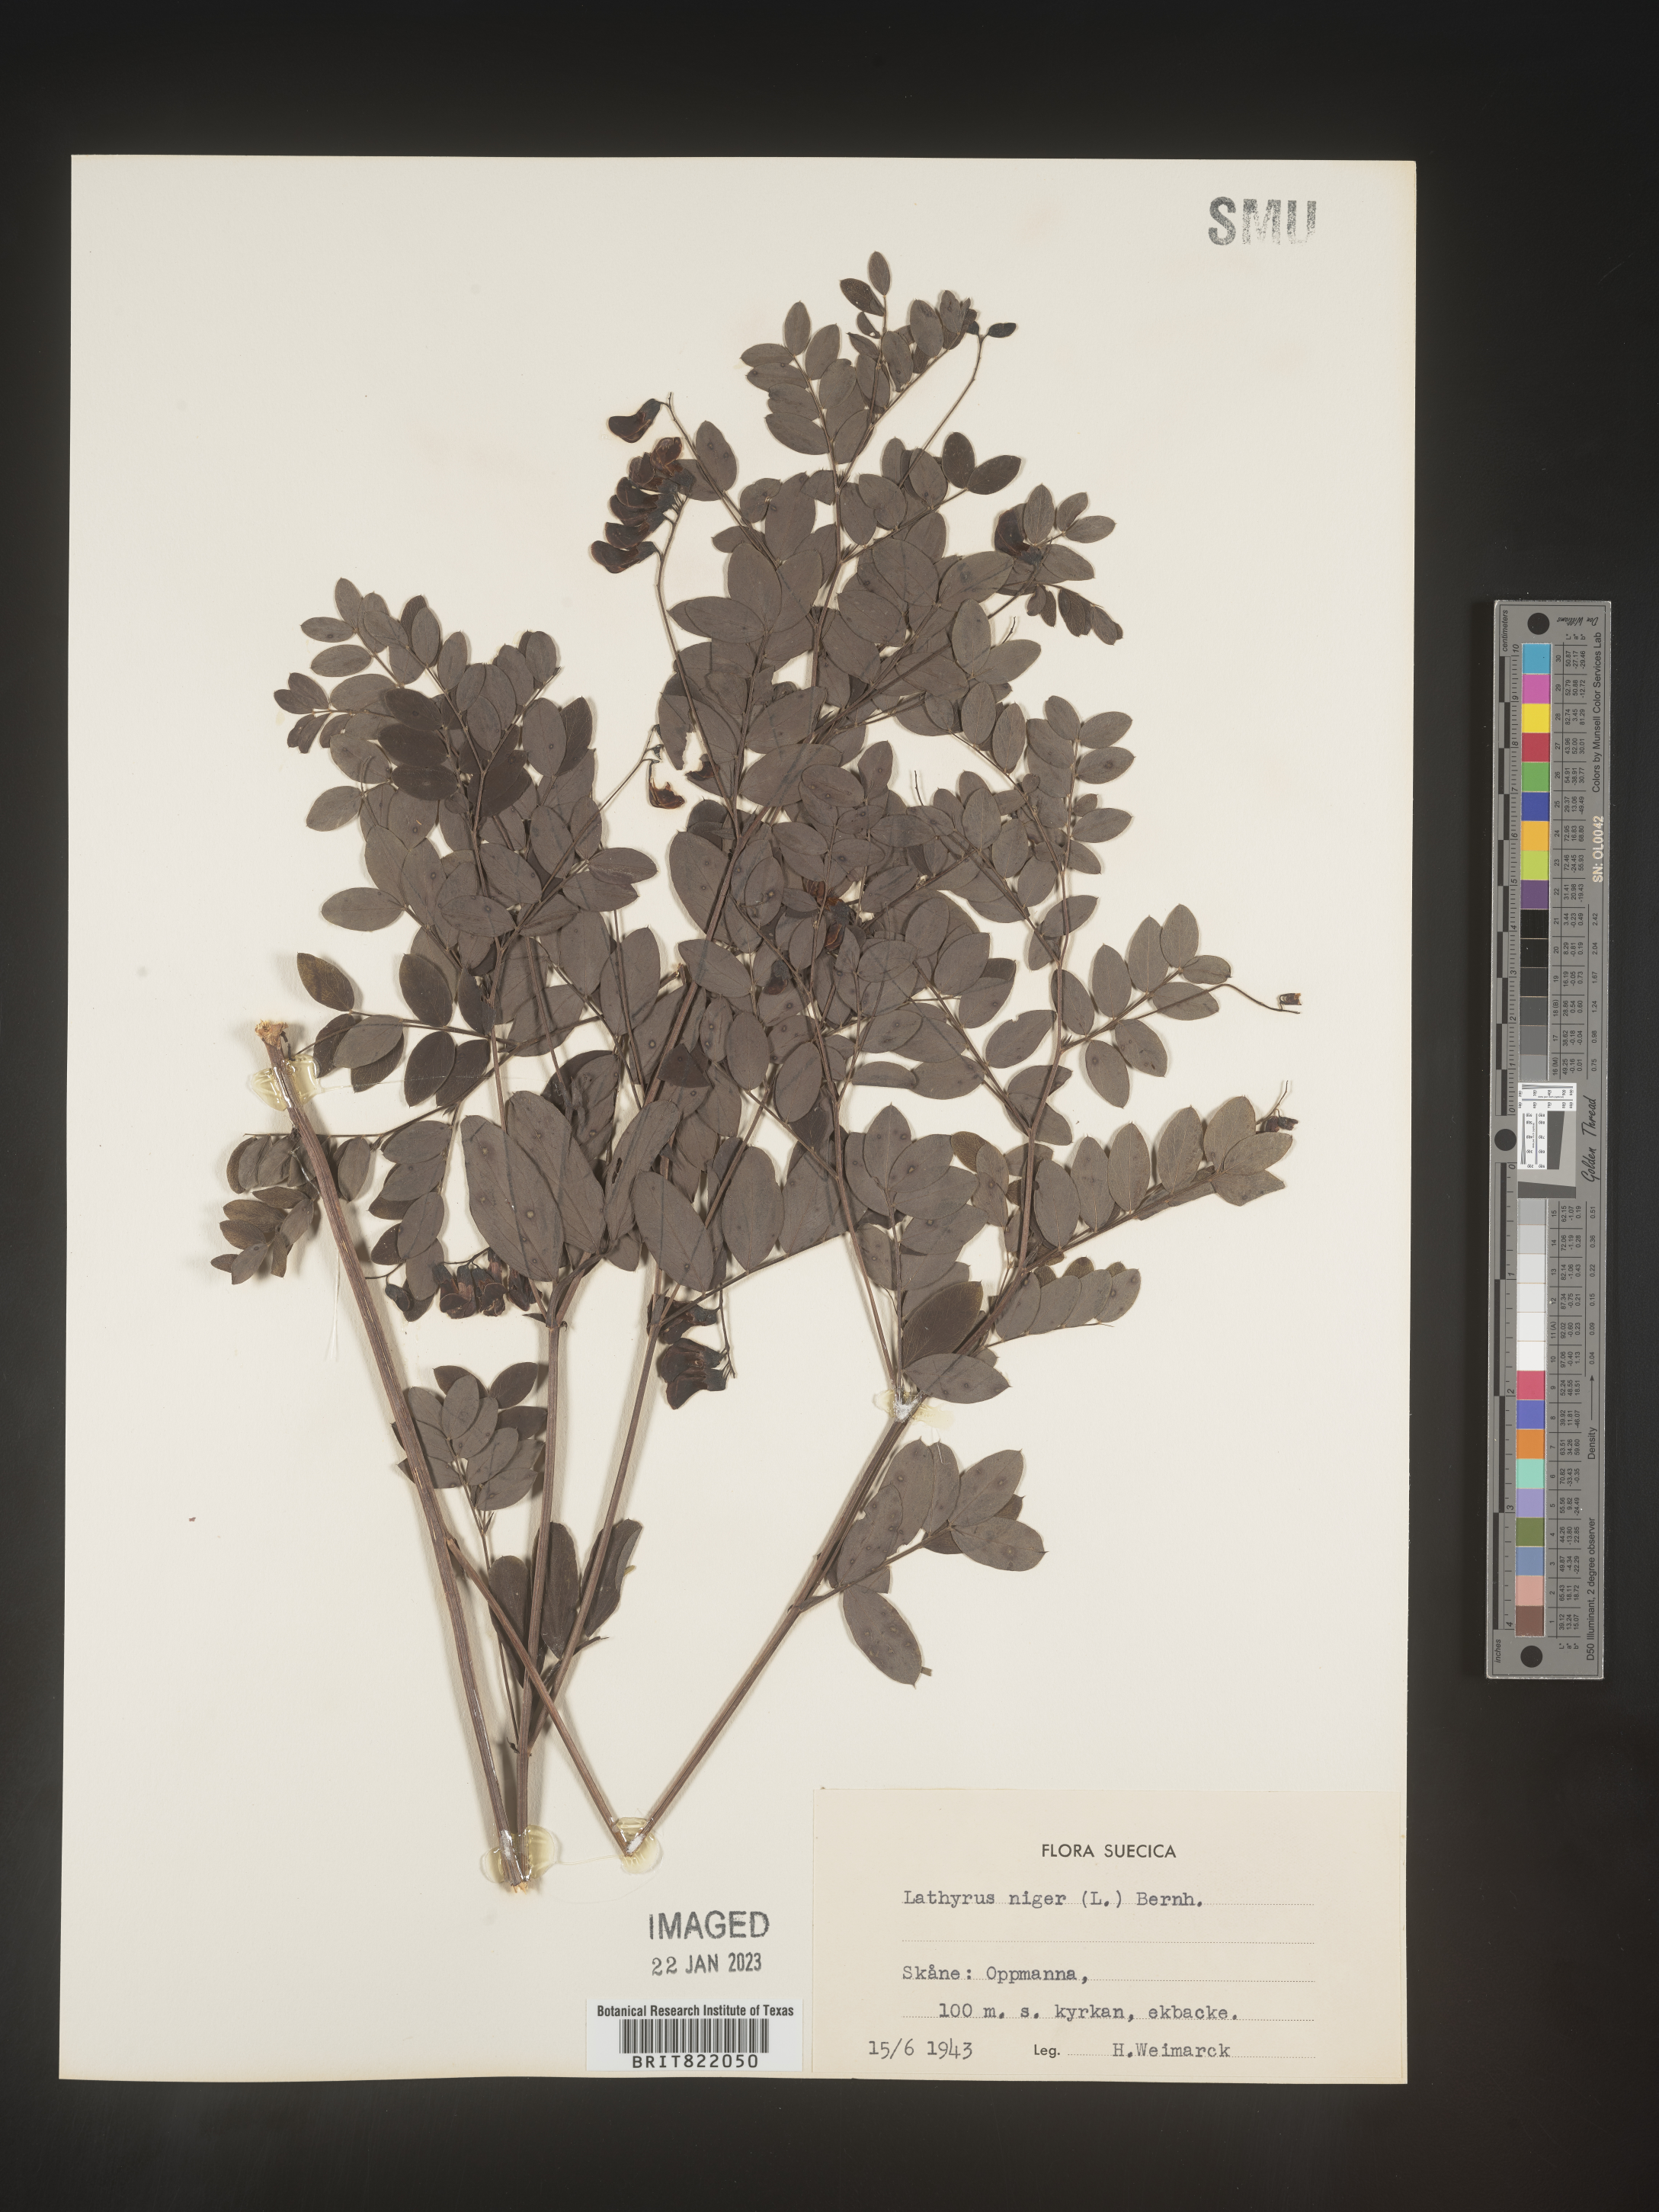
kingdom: Plantae
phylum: Tracheophyta
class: Magnoliopsida
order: Fabales
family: Fabaceae
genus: Lathyrus
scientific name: Lathyrus
